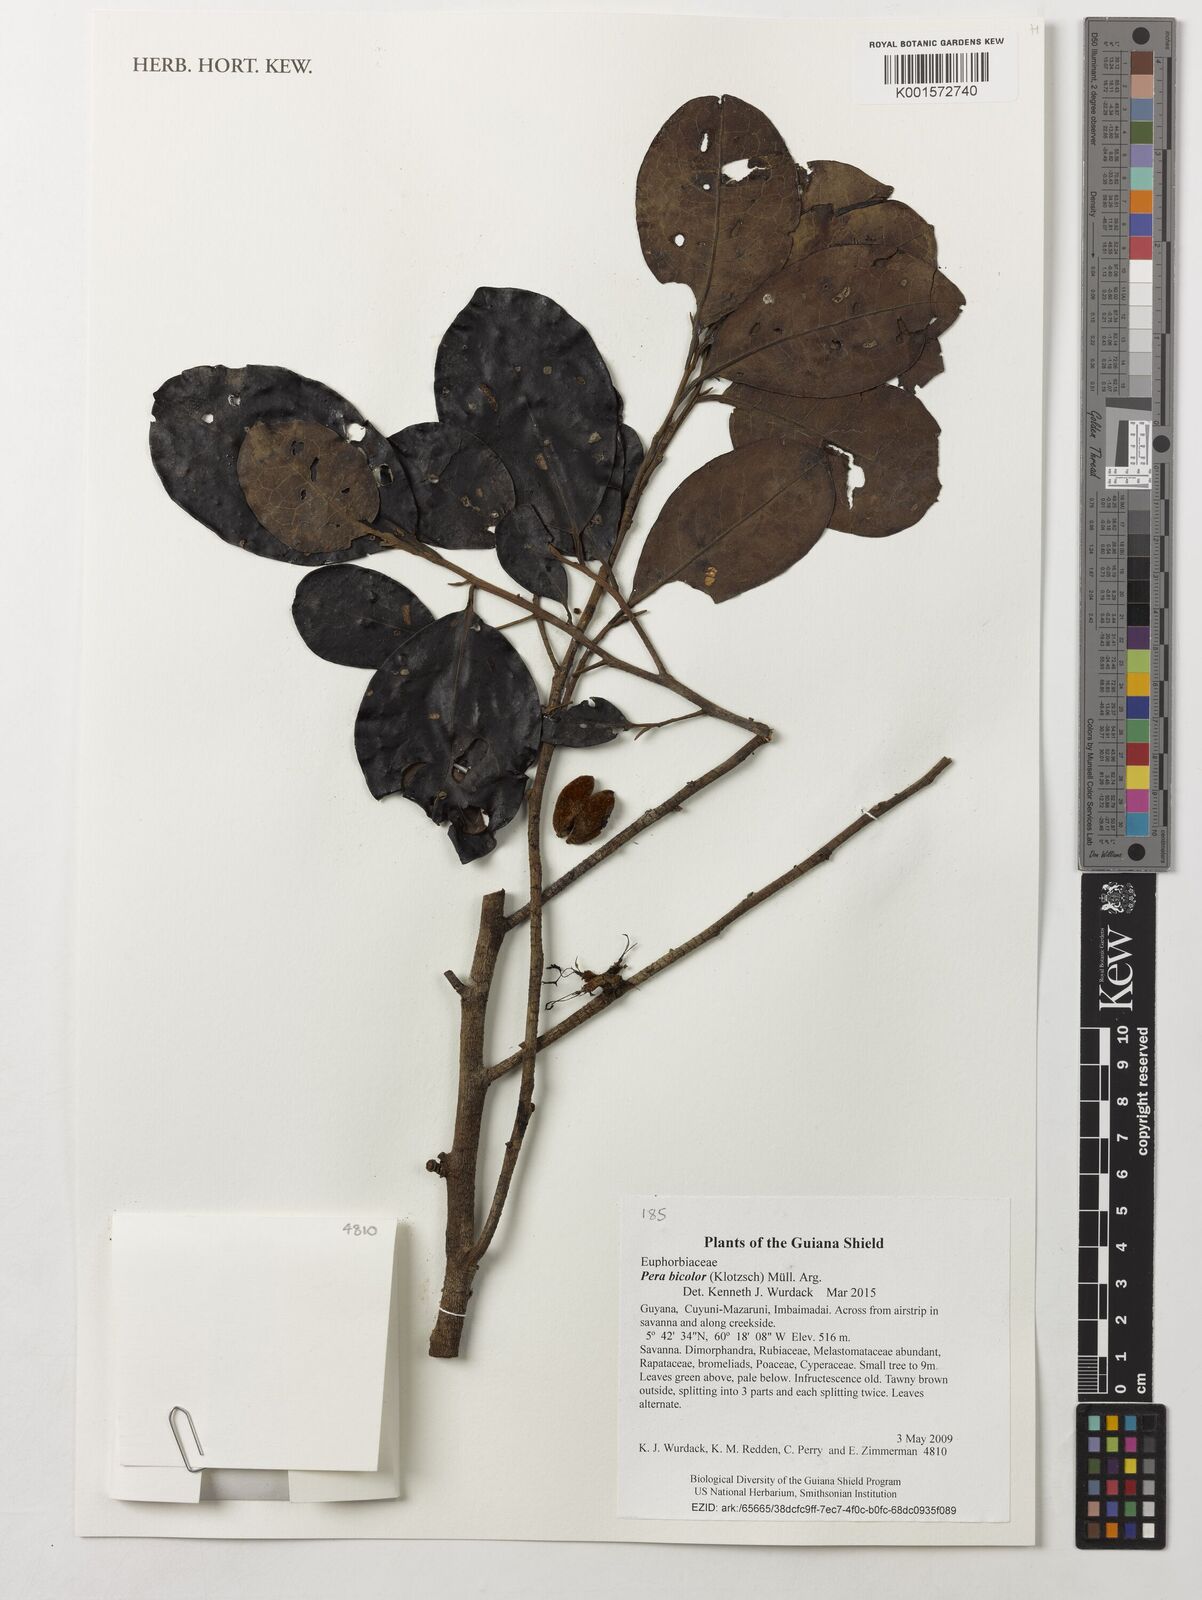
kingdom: Plantae
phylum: Tracheophyta
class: Magnoliopsida
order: Malpighiales
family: Peraceae
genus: Pera
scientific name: Pera bicolor
